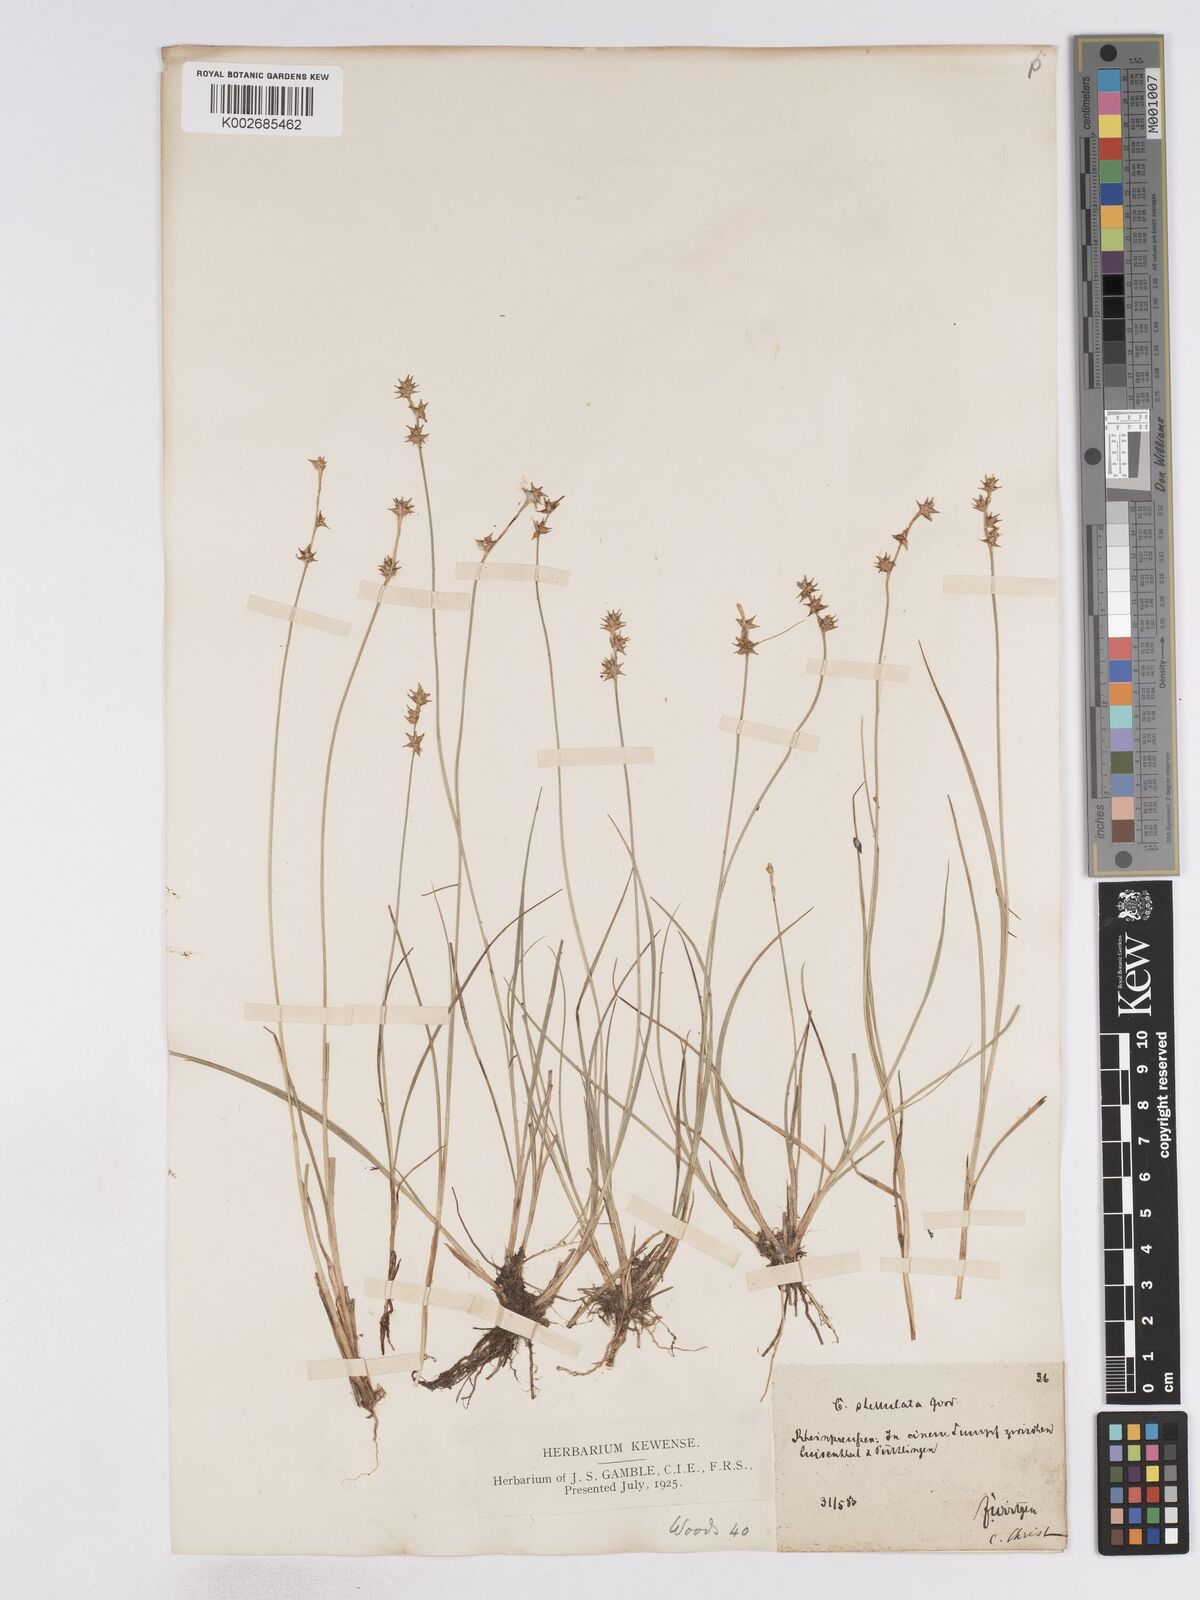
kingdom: Plantae
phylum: Tracheophyta
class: Liliopsida
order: Poales
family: Cyperaceae
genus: Carex
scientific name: Carex echinata
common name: Star sedge
